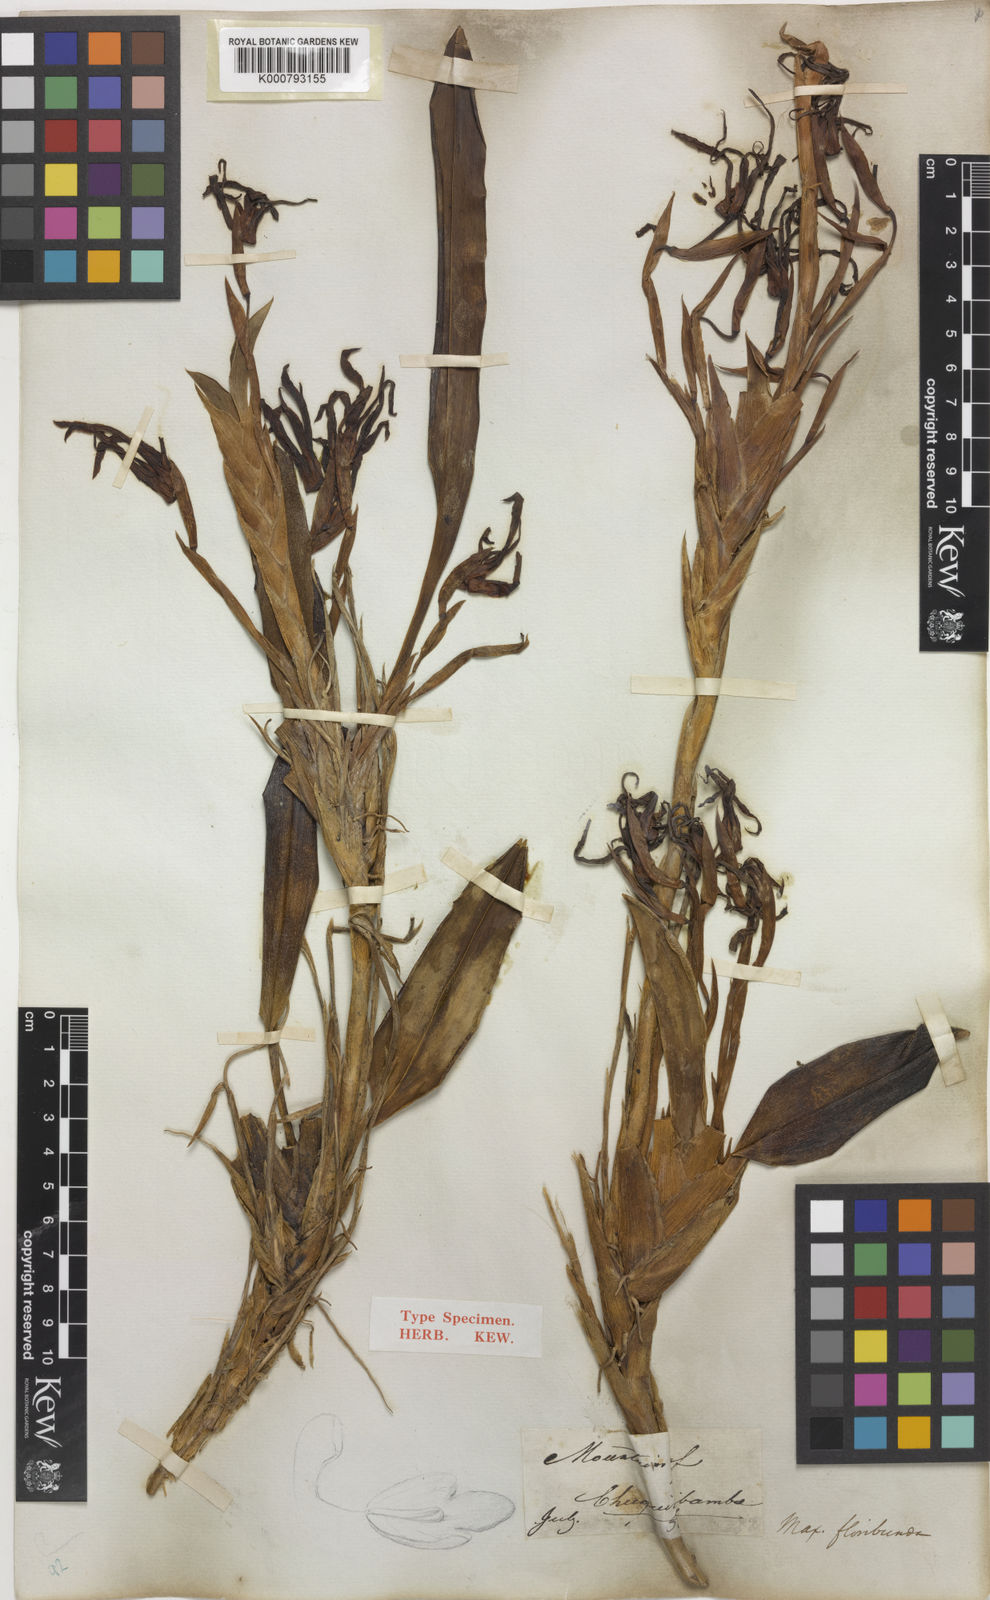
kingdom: Plantae
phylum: Tracheophyta
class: Liliopsida
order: Asparagales
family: Orchidaceae
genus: Maxillaria
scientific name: Maxillaria floribunda
